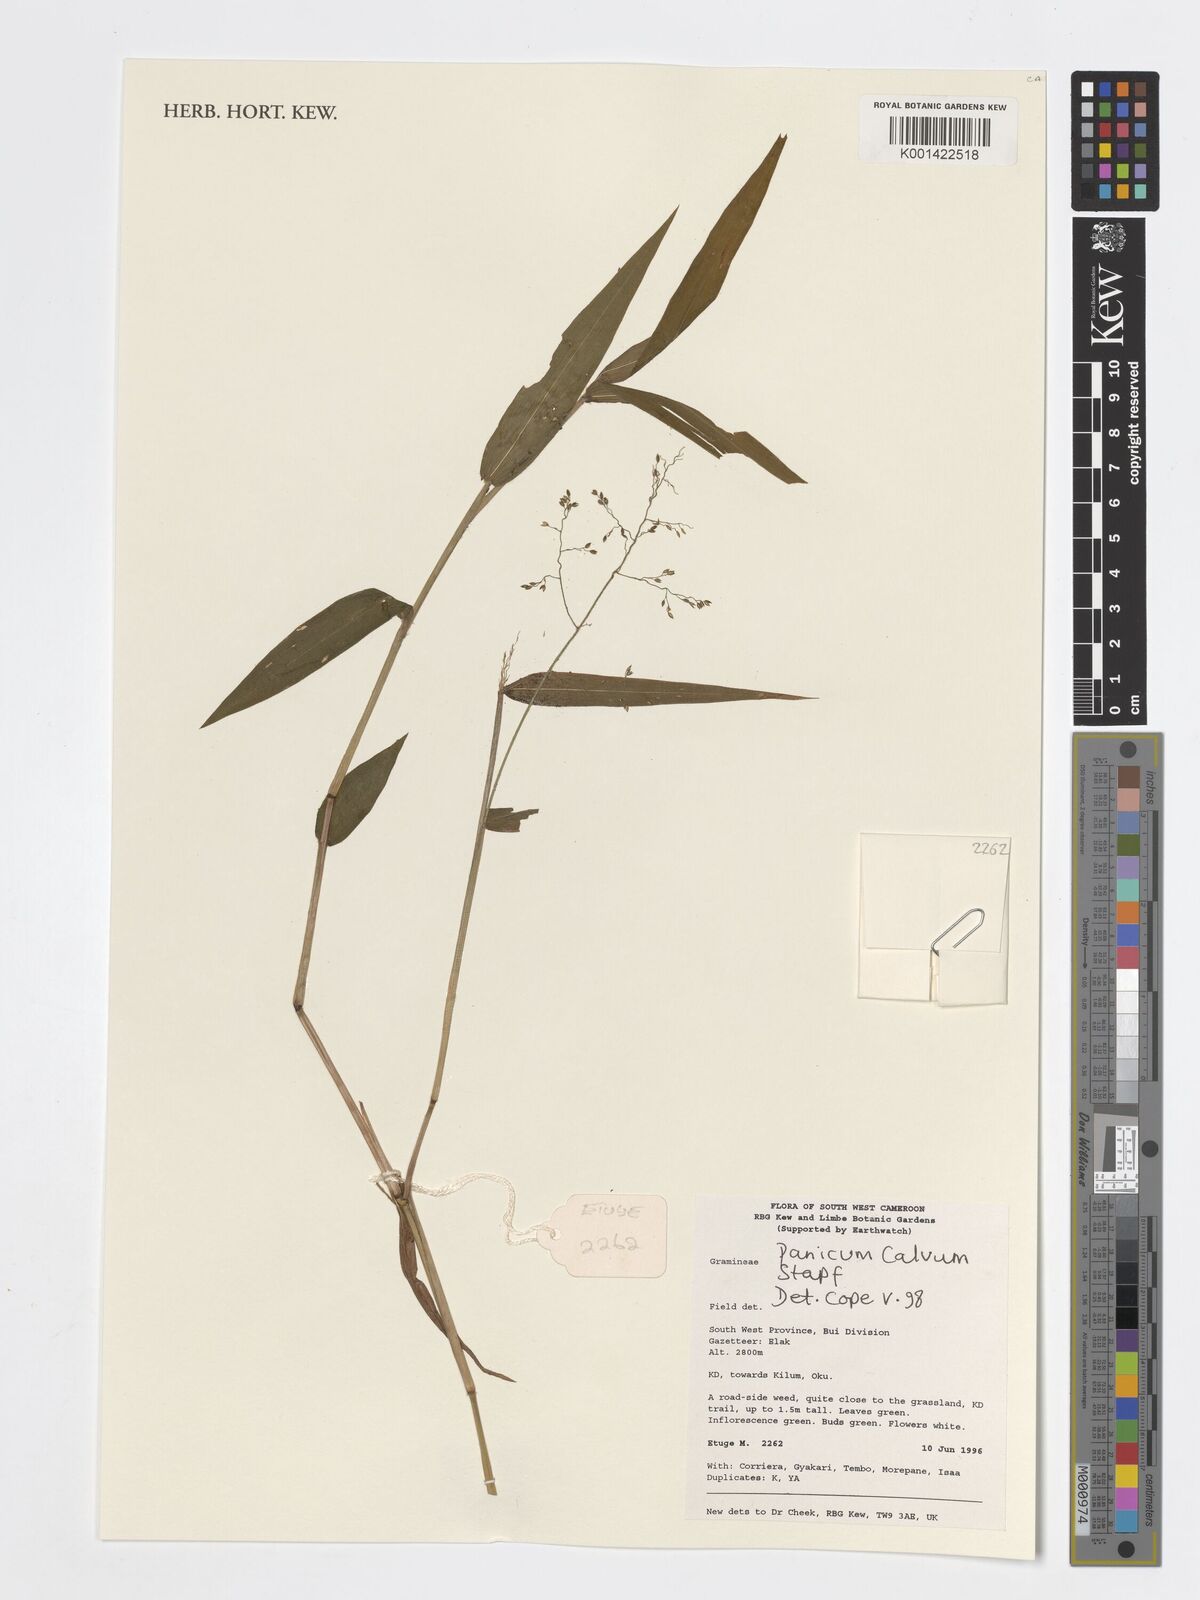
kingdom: Plantae
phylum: Tracheophyta
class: Liliopsida
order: Poales
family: Poaceae
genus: Panicum
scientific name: Panicum calvum
